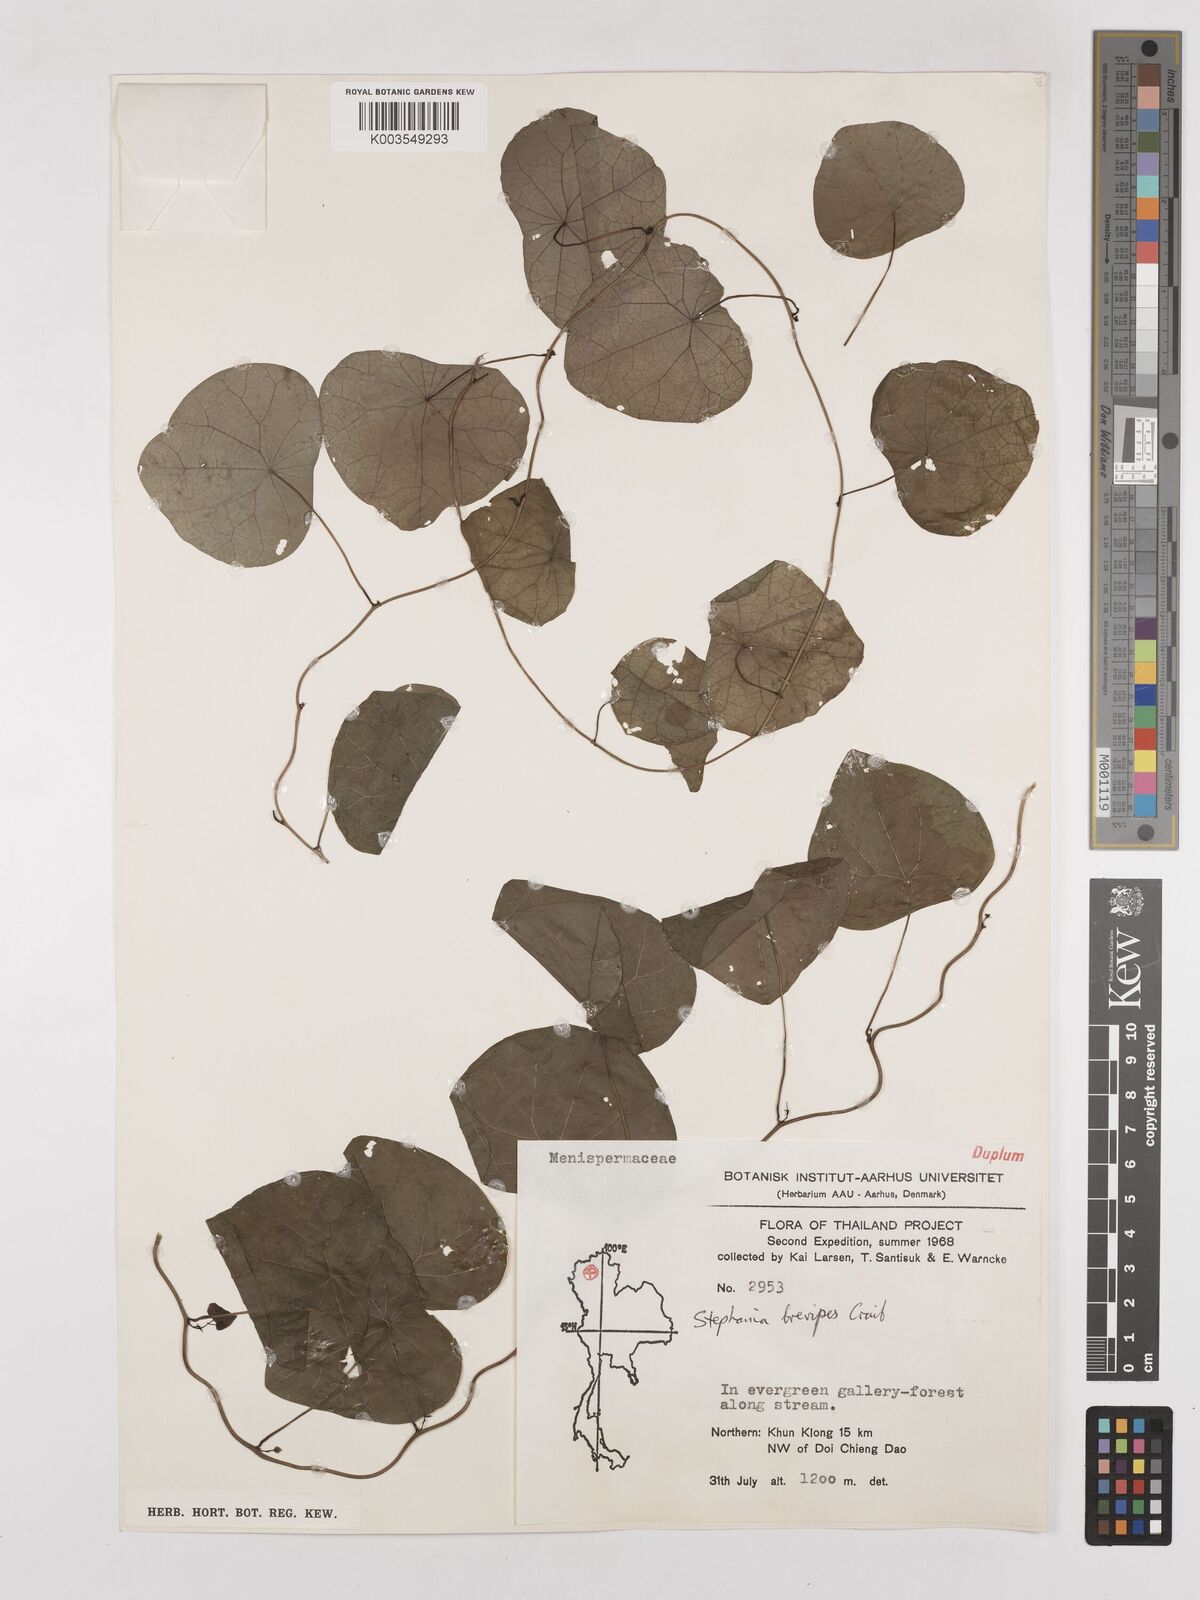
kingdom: Plantae
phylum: Tracheophyta
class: Magnoliopsida
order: Ranunculales
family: Menispermaceae
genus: Stephania
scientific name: Stephania brevipes
